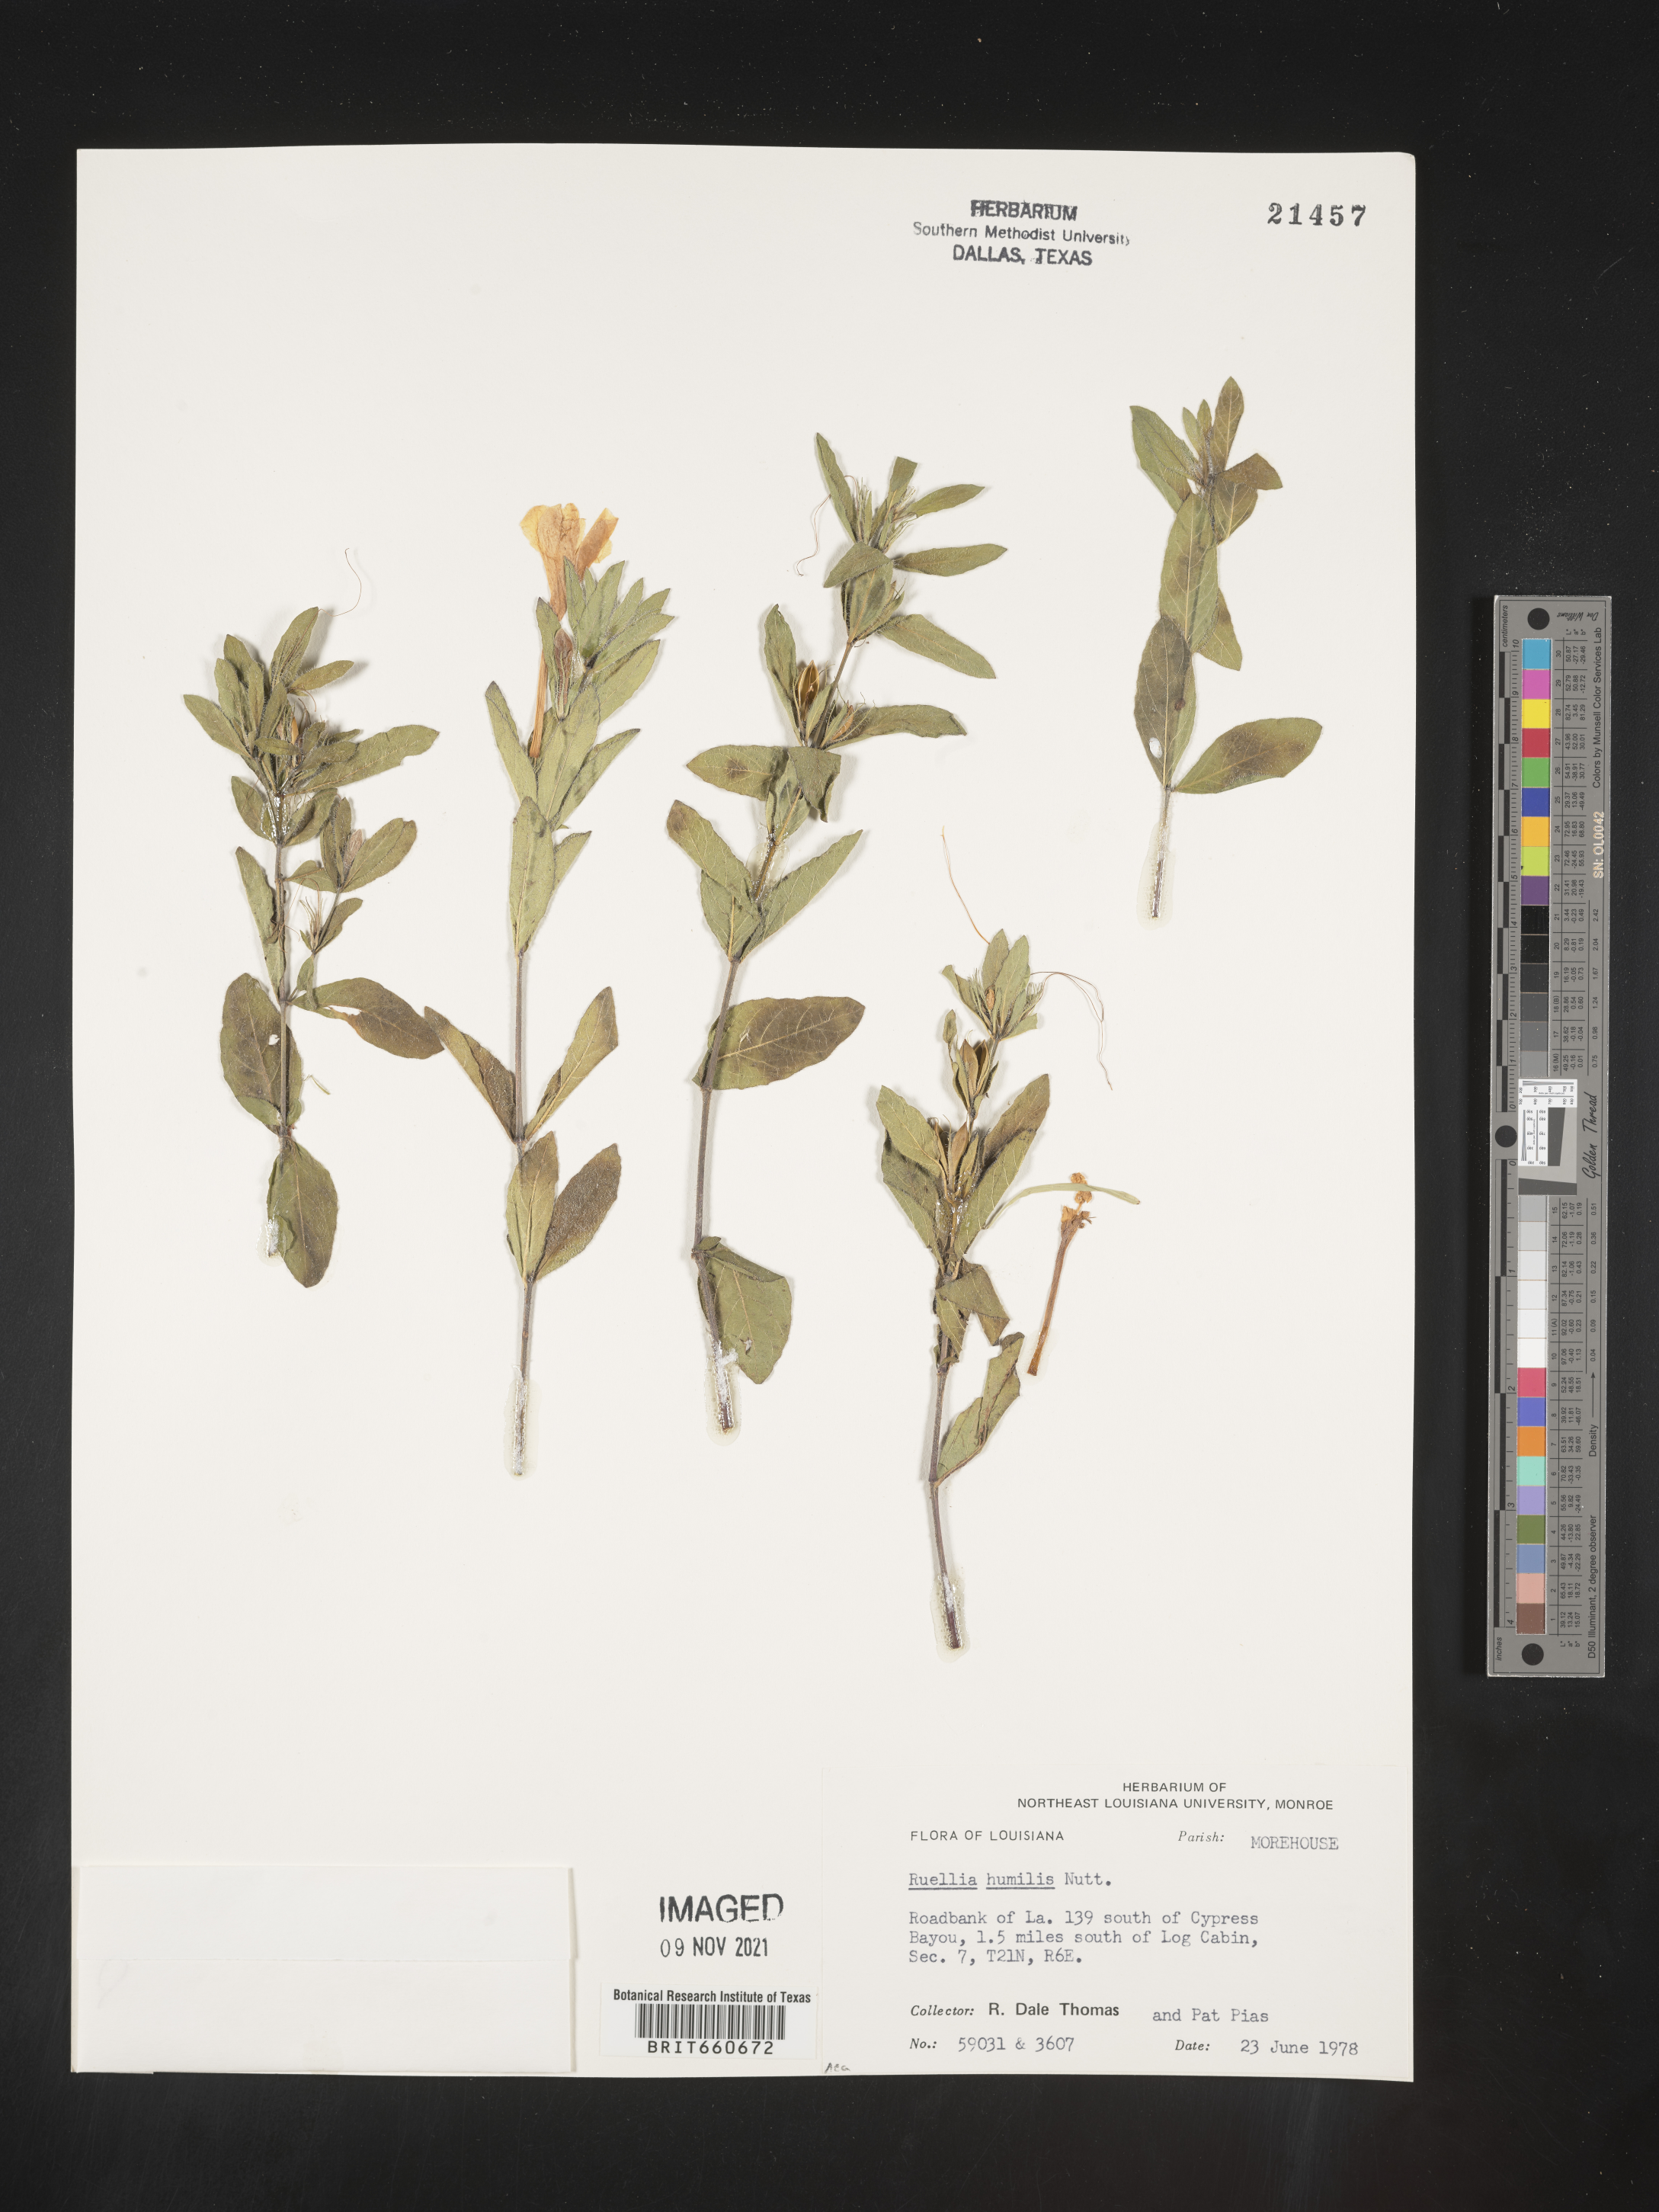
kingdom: Plantae
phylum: Tracheophyta
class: Magnoliopsida
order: Lamiales
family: Acanthaceae
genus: Ruellia
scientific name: Ruellia humilis
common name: Fringe-leaf ruellia
